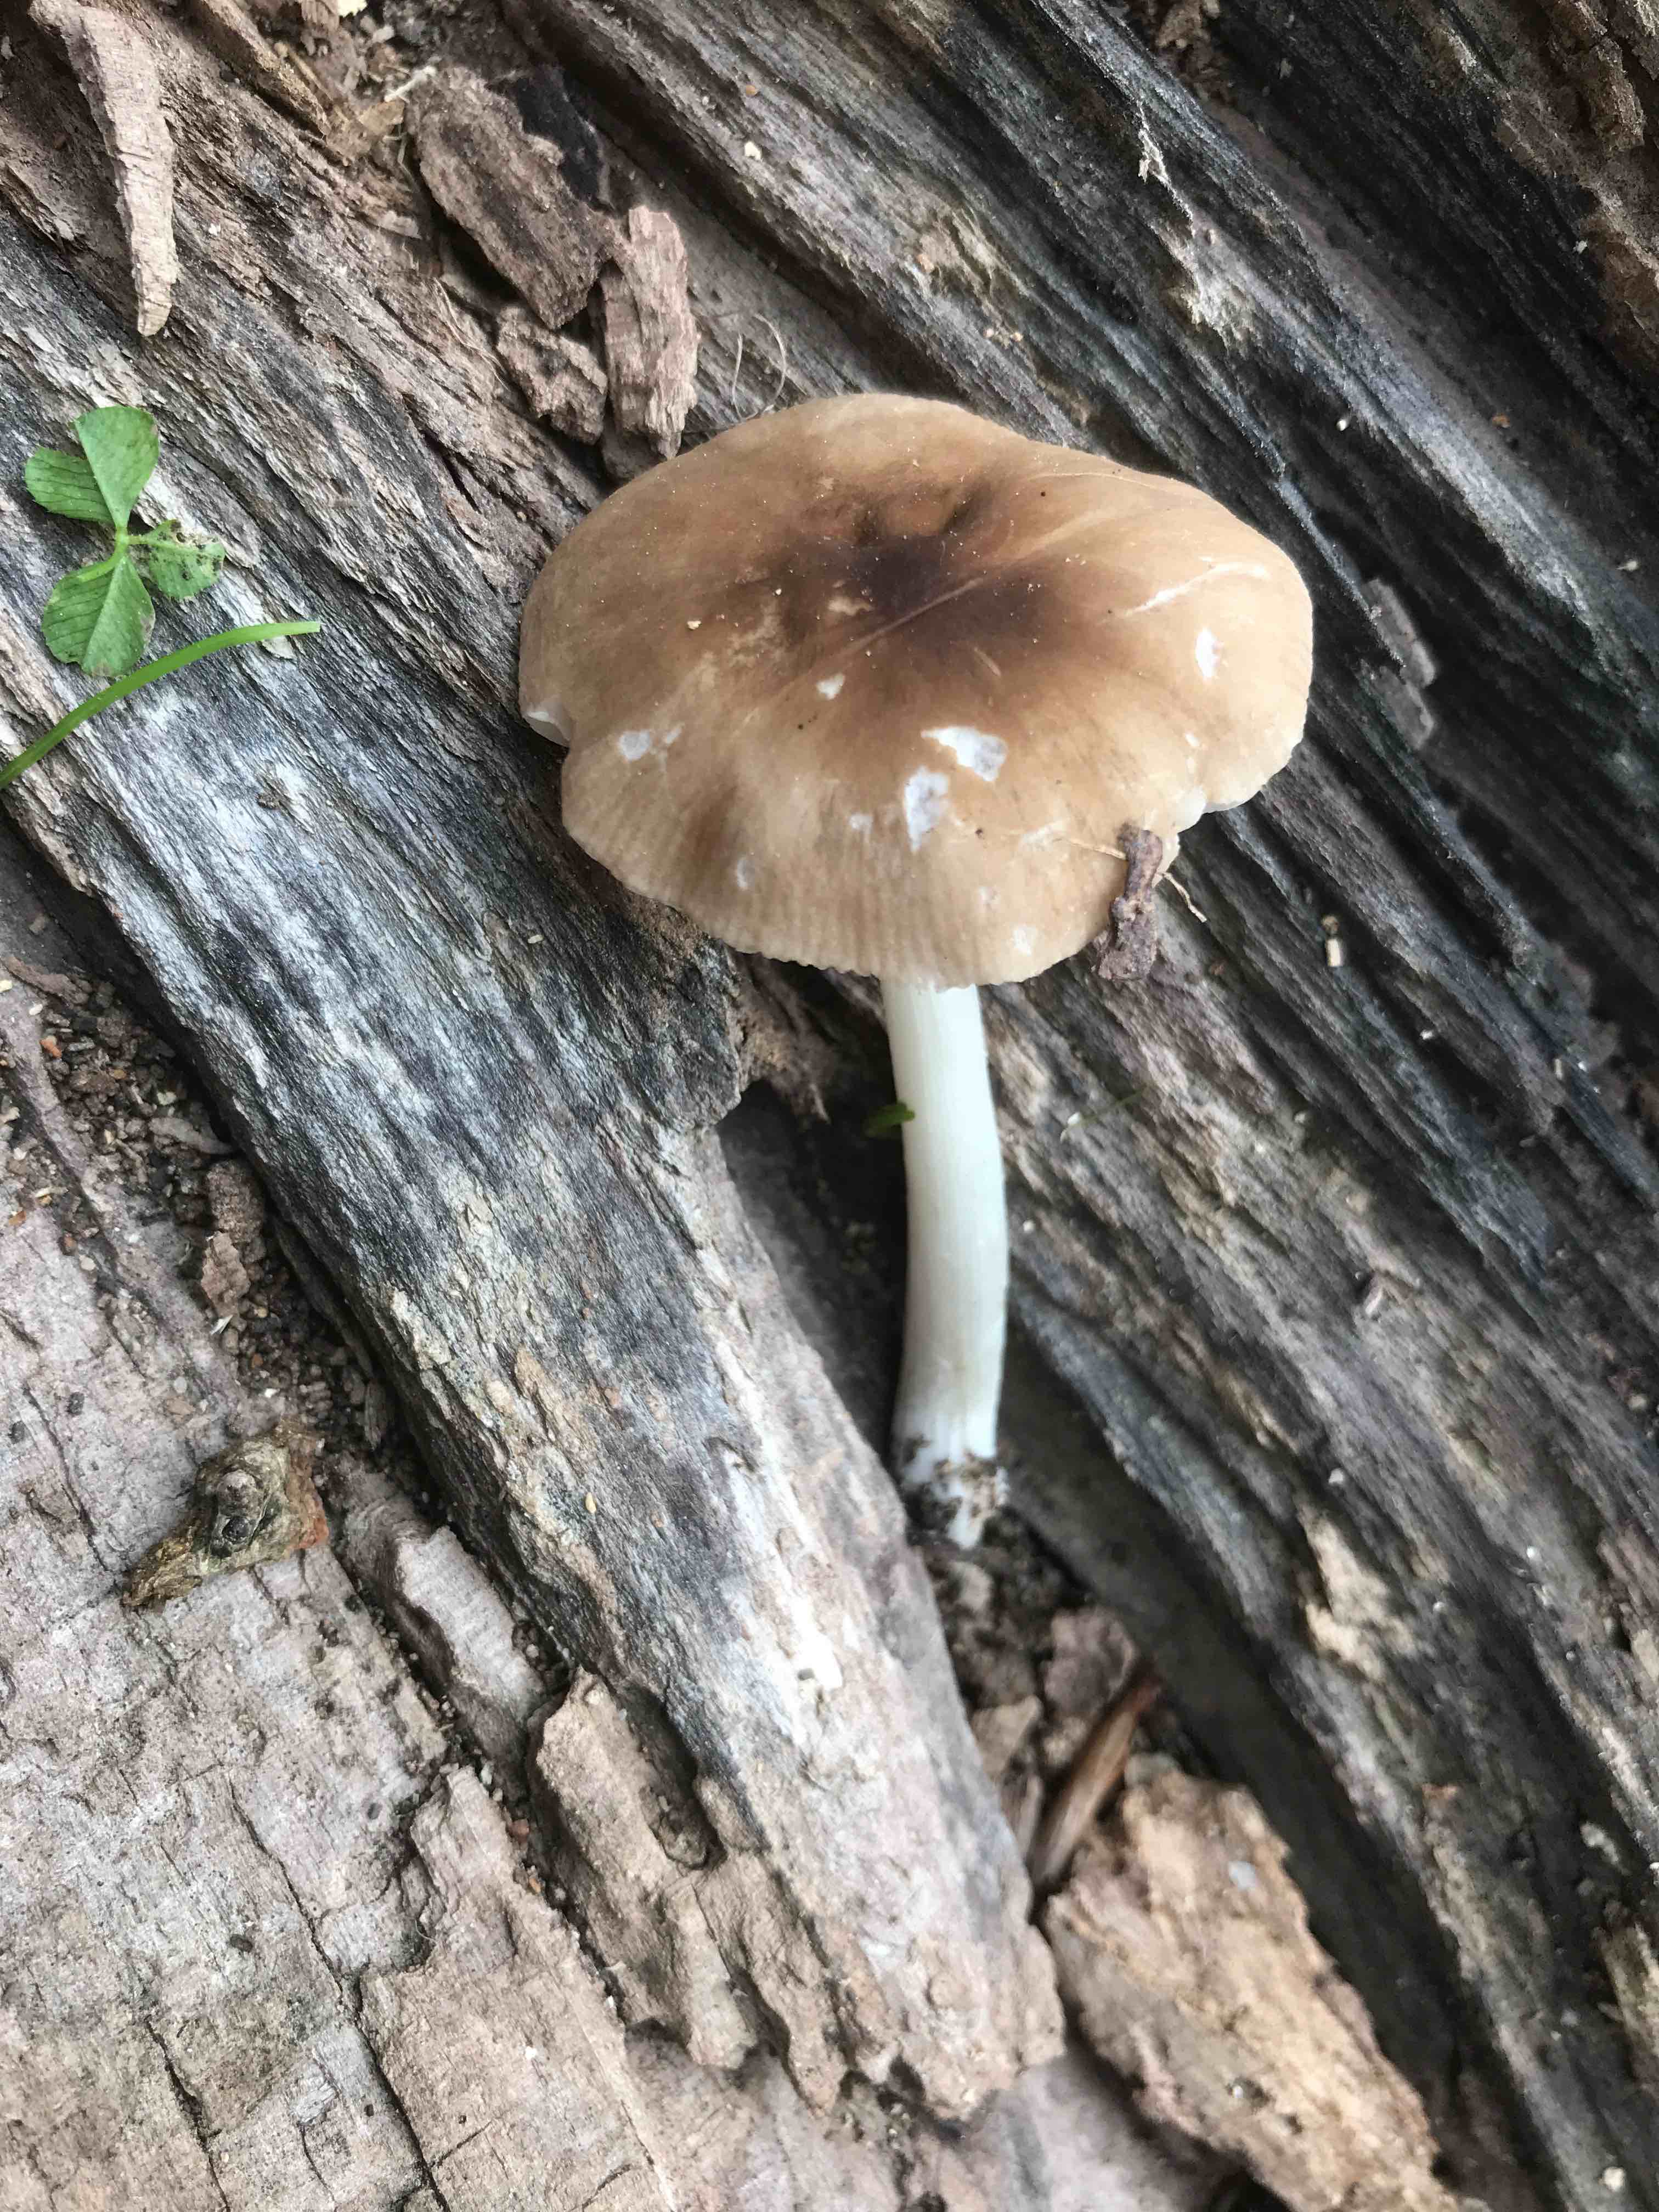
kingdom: Fungi
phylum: Basidiomycota
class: Agaricomycetes
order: Agaricales
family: Pluteaceae
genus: Pluteus
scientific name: Pluteus
